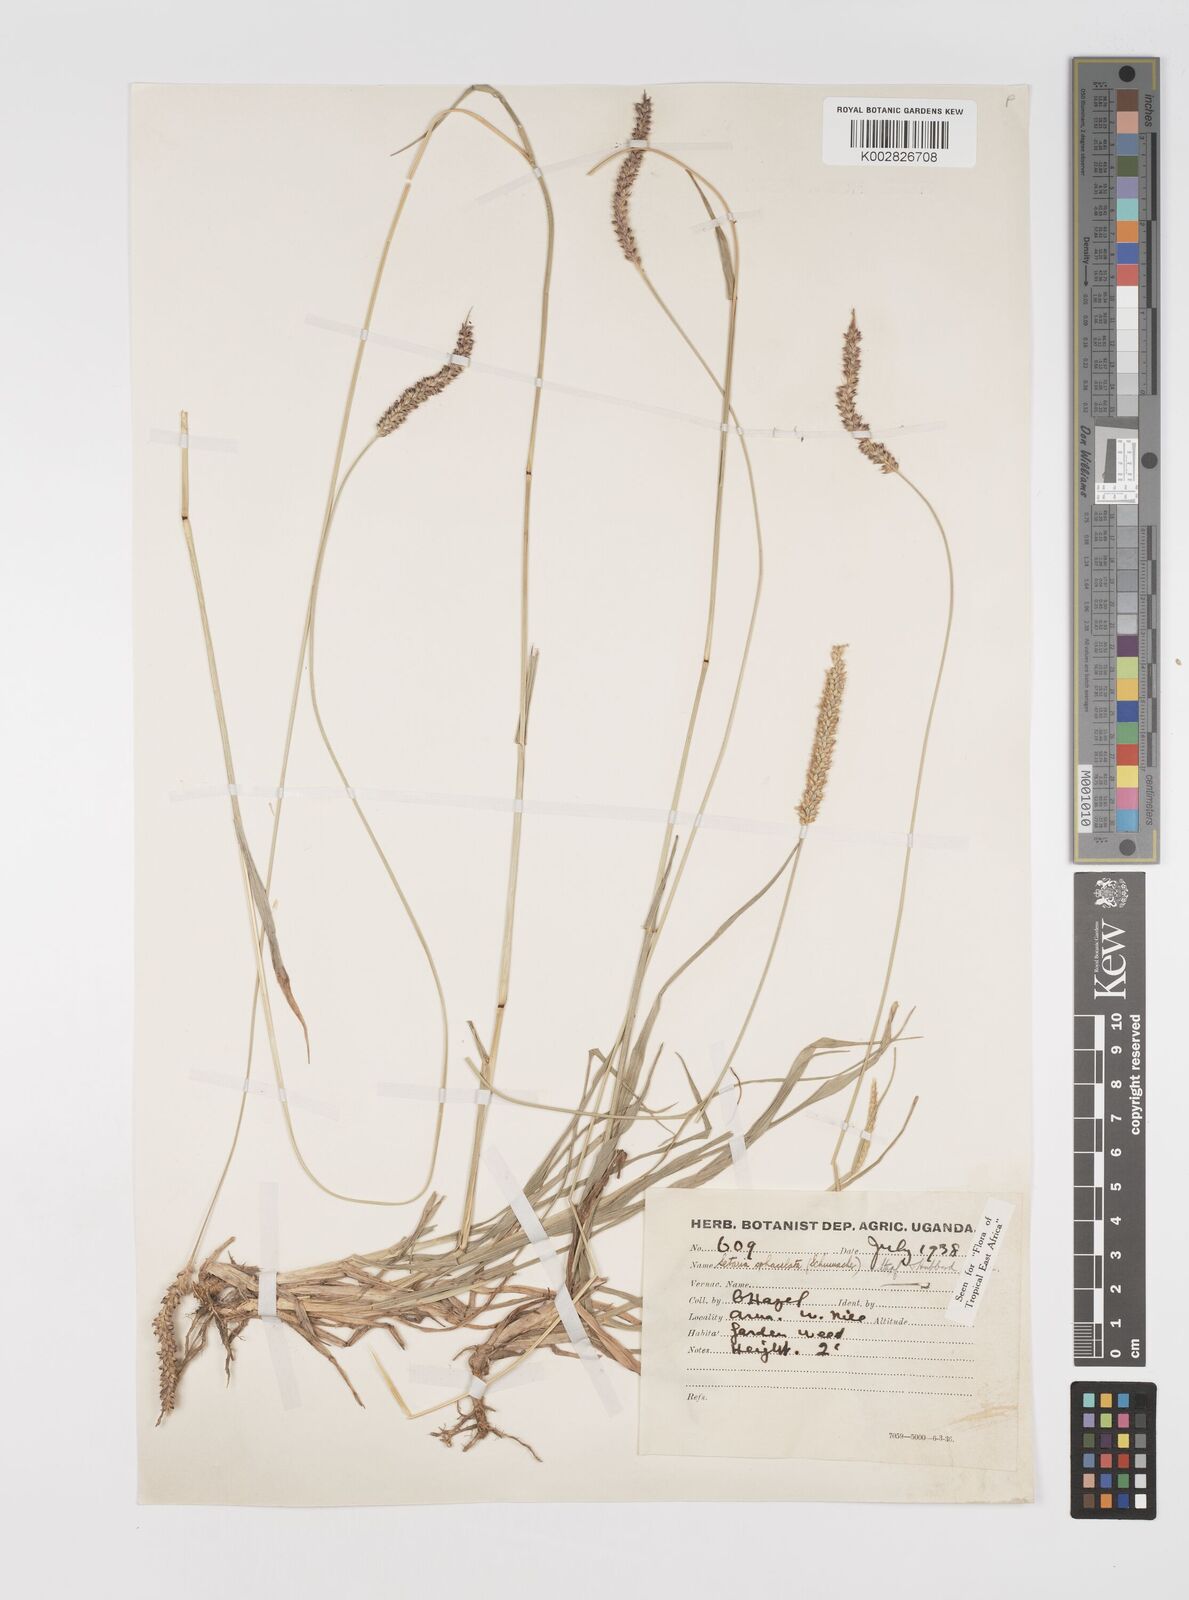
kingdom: Plantae
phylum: Tracheophyta
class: Liliopsida
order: Poales
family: Poaceae
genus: Setaria
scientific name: Setaria sphacelata
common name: African bristlegrass
